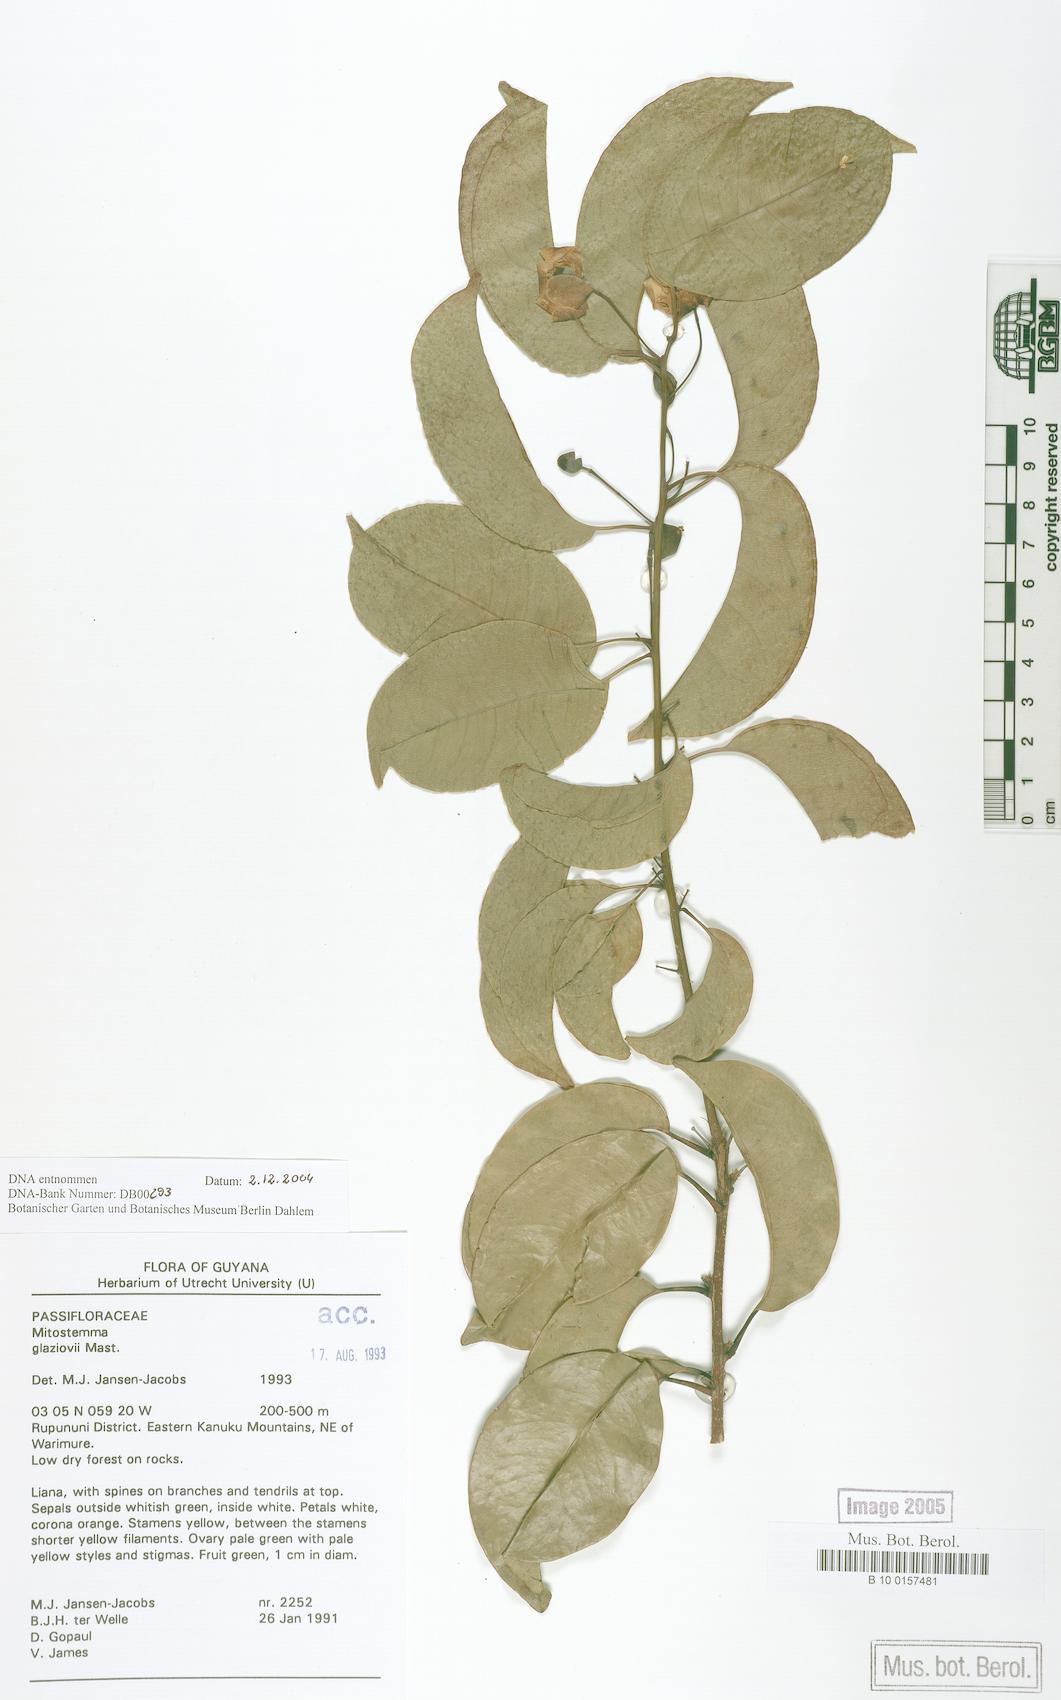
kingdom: Plantae
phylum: Tracheophyta
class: Magnoliopsida
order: Malpighiales
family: Passifloraceae
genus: Mitostemma
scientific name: Mitostemma glaziovii
